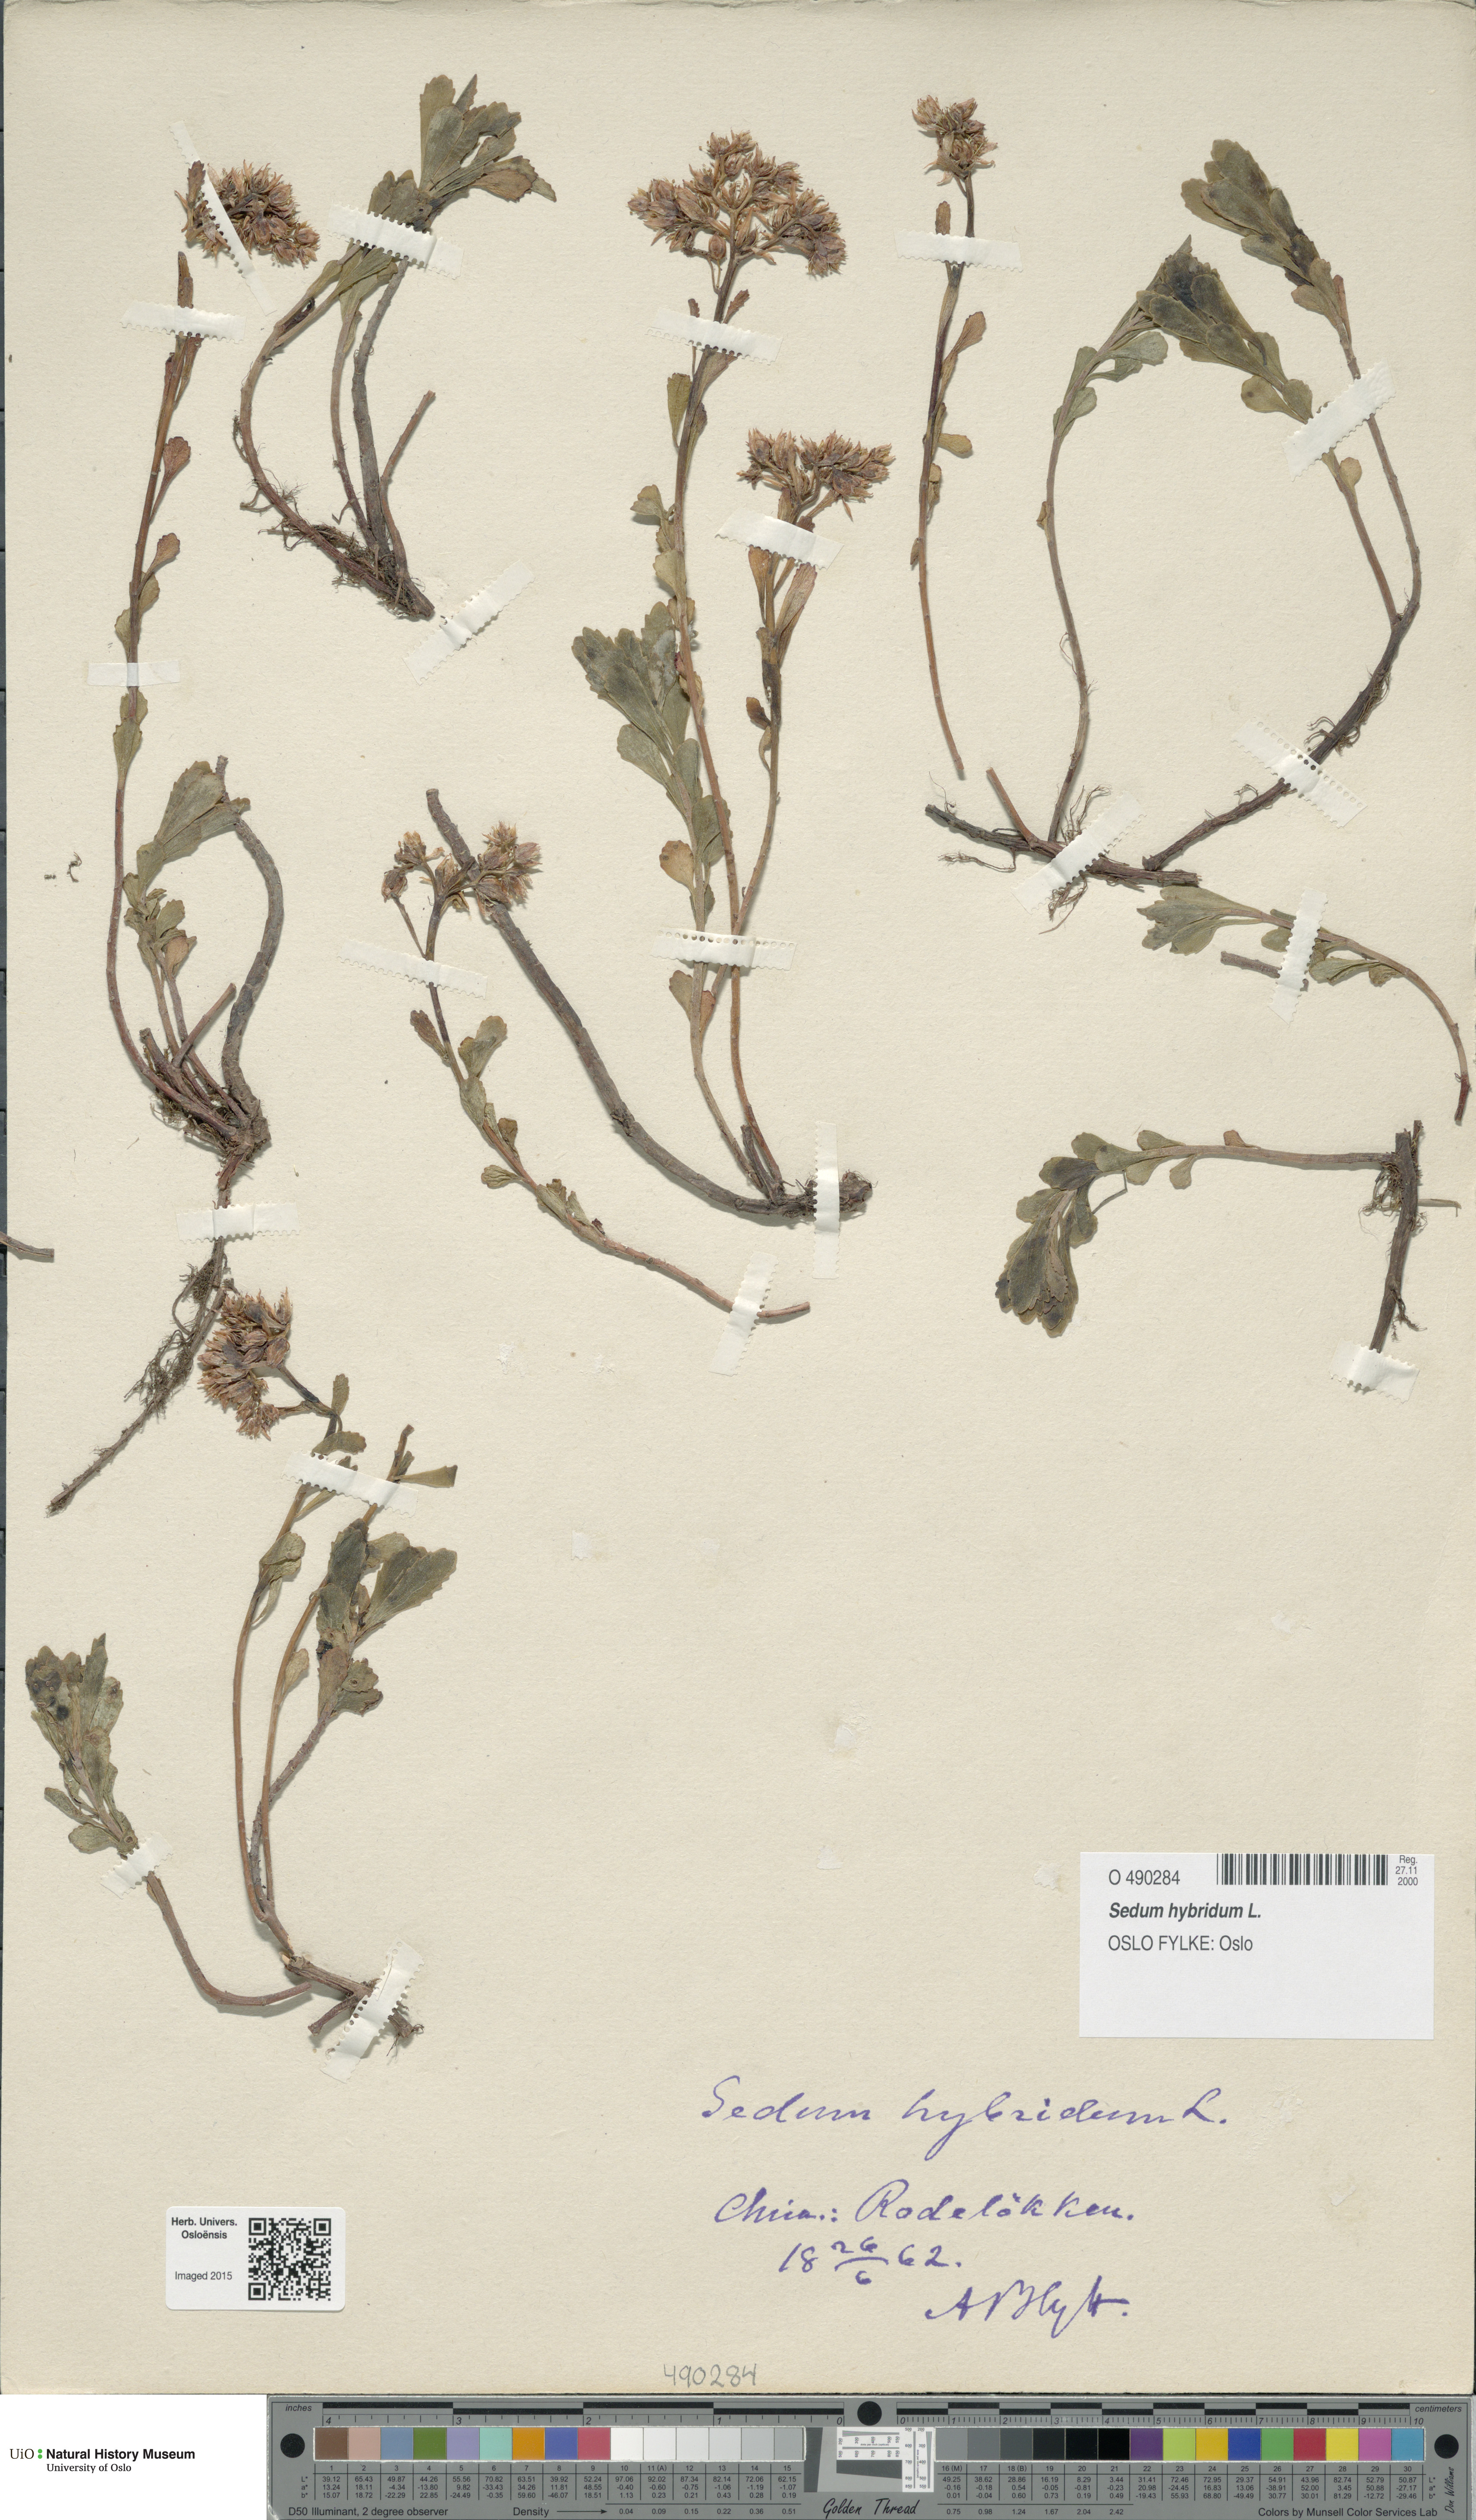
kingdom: Plantae
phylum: Tracheophyta
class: Magnoliopsida
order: Saxifragales
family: Crassulaceae
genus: Phedimus
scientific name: Phedimus hybridus
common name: Hybrid stonecrop
